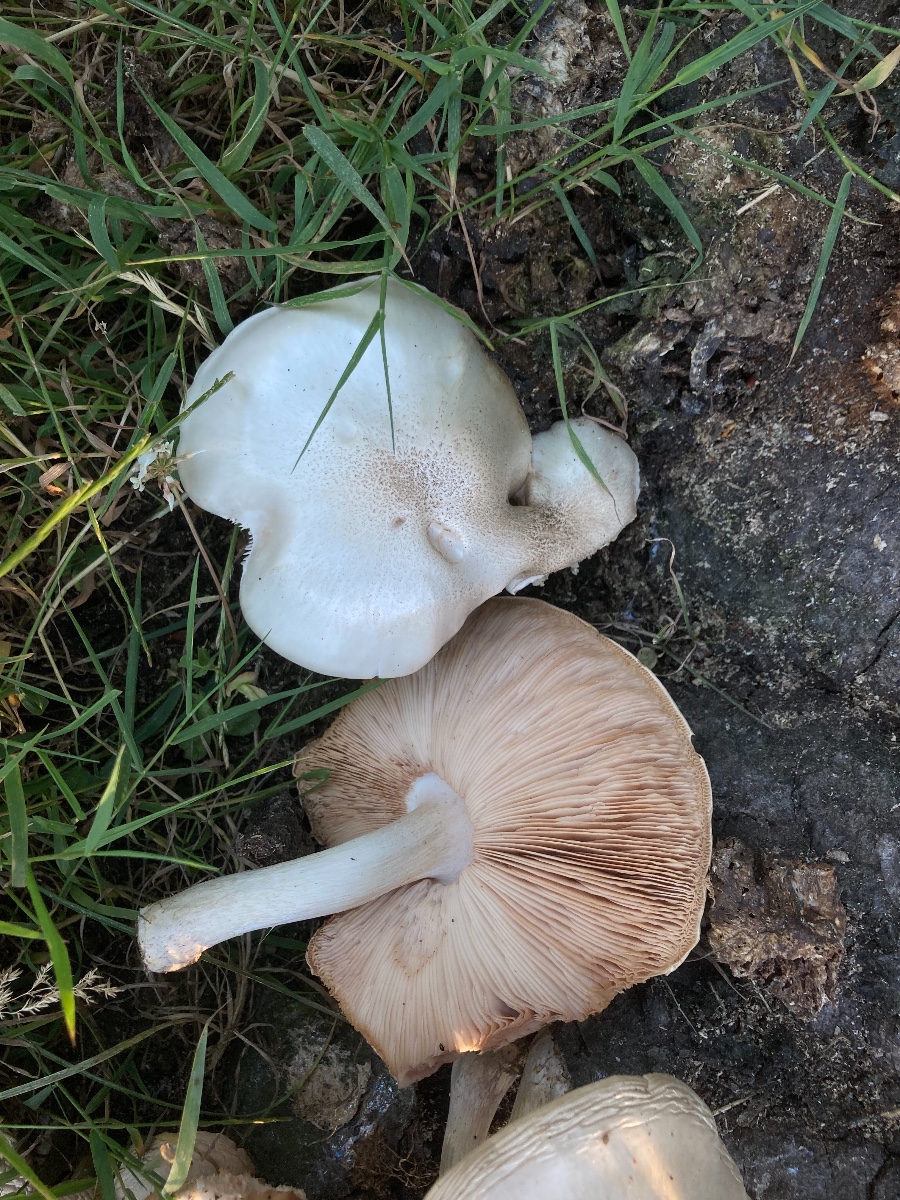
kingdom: Fungi
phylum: Basidiomycota
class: Agaricomycetes
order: Agaricales
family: Pluteaceae
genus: Pluteus
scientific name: Pluteus petasatus
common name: savsmulds-skærmhat
